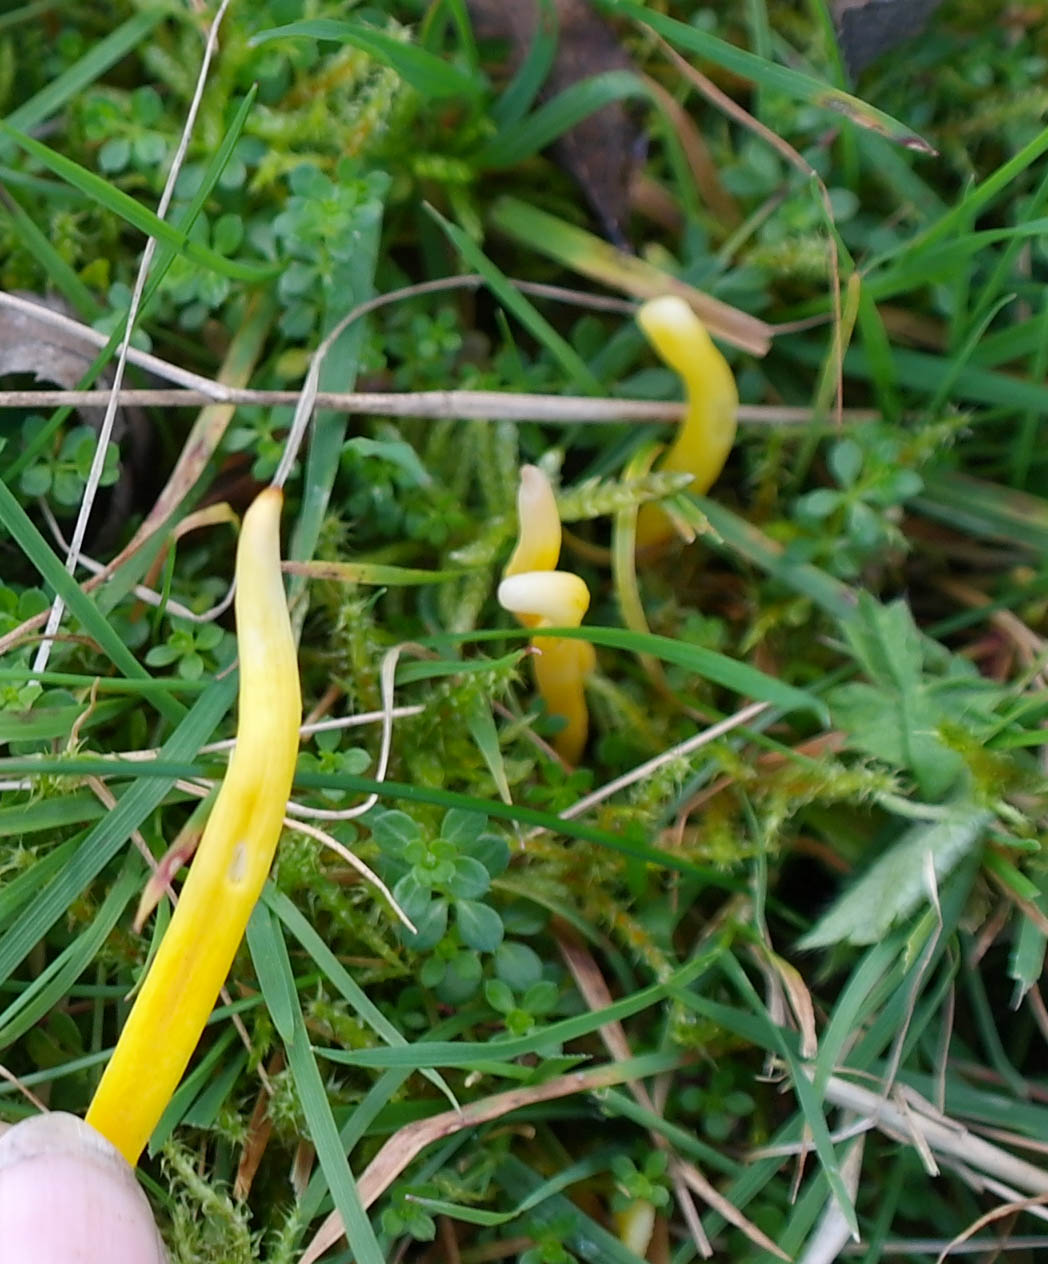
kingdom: Fungi
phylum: Basidiomycota
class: Agaricomycetes
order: Agaricales
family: Clavariaceae
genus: Clavulinopsis
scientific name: Clavulinopsis helvola
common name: orangegul køllesvamp
